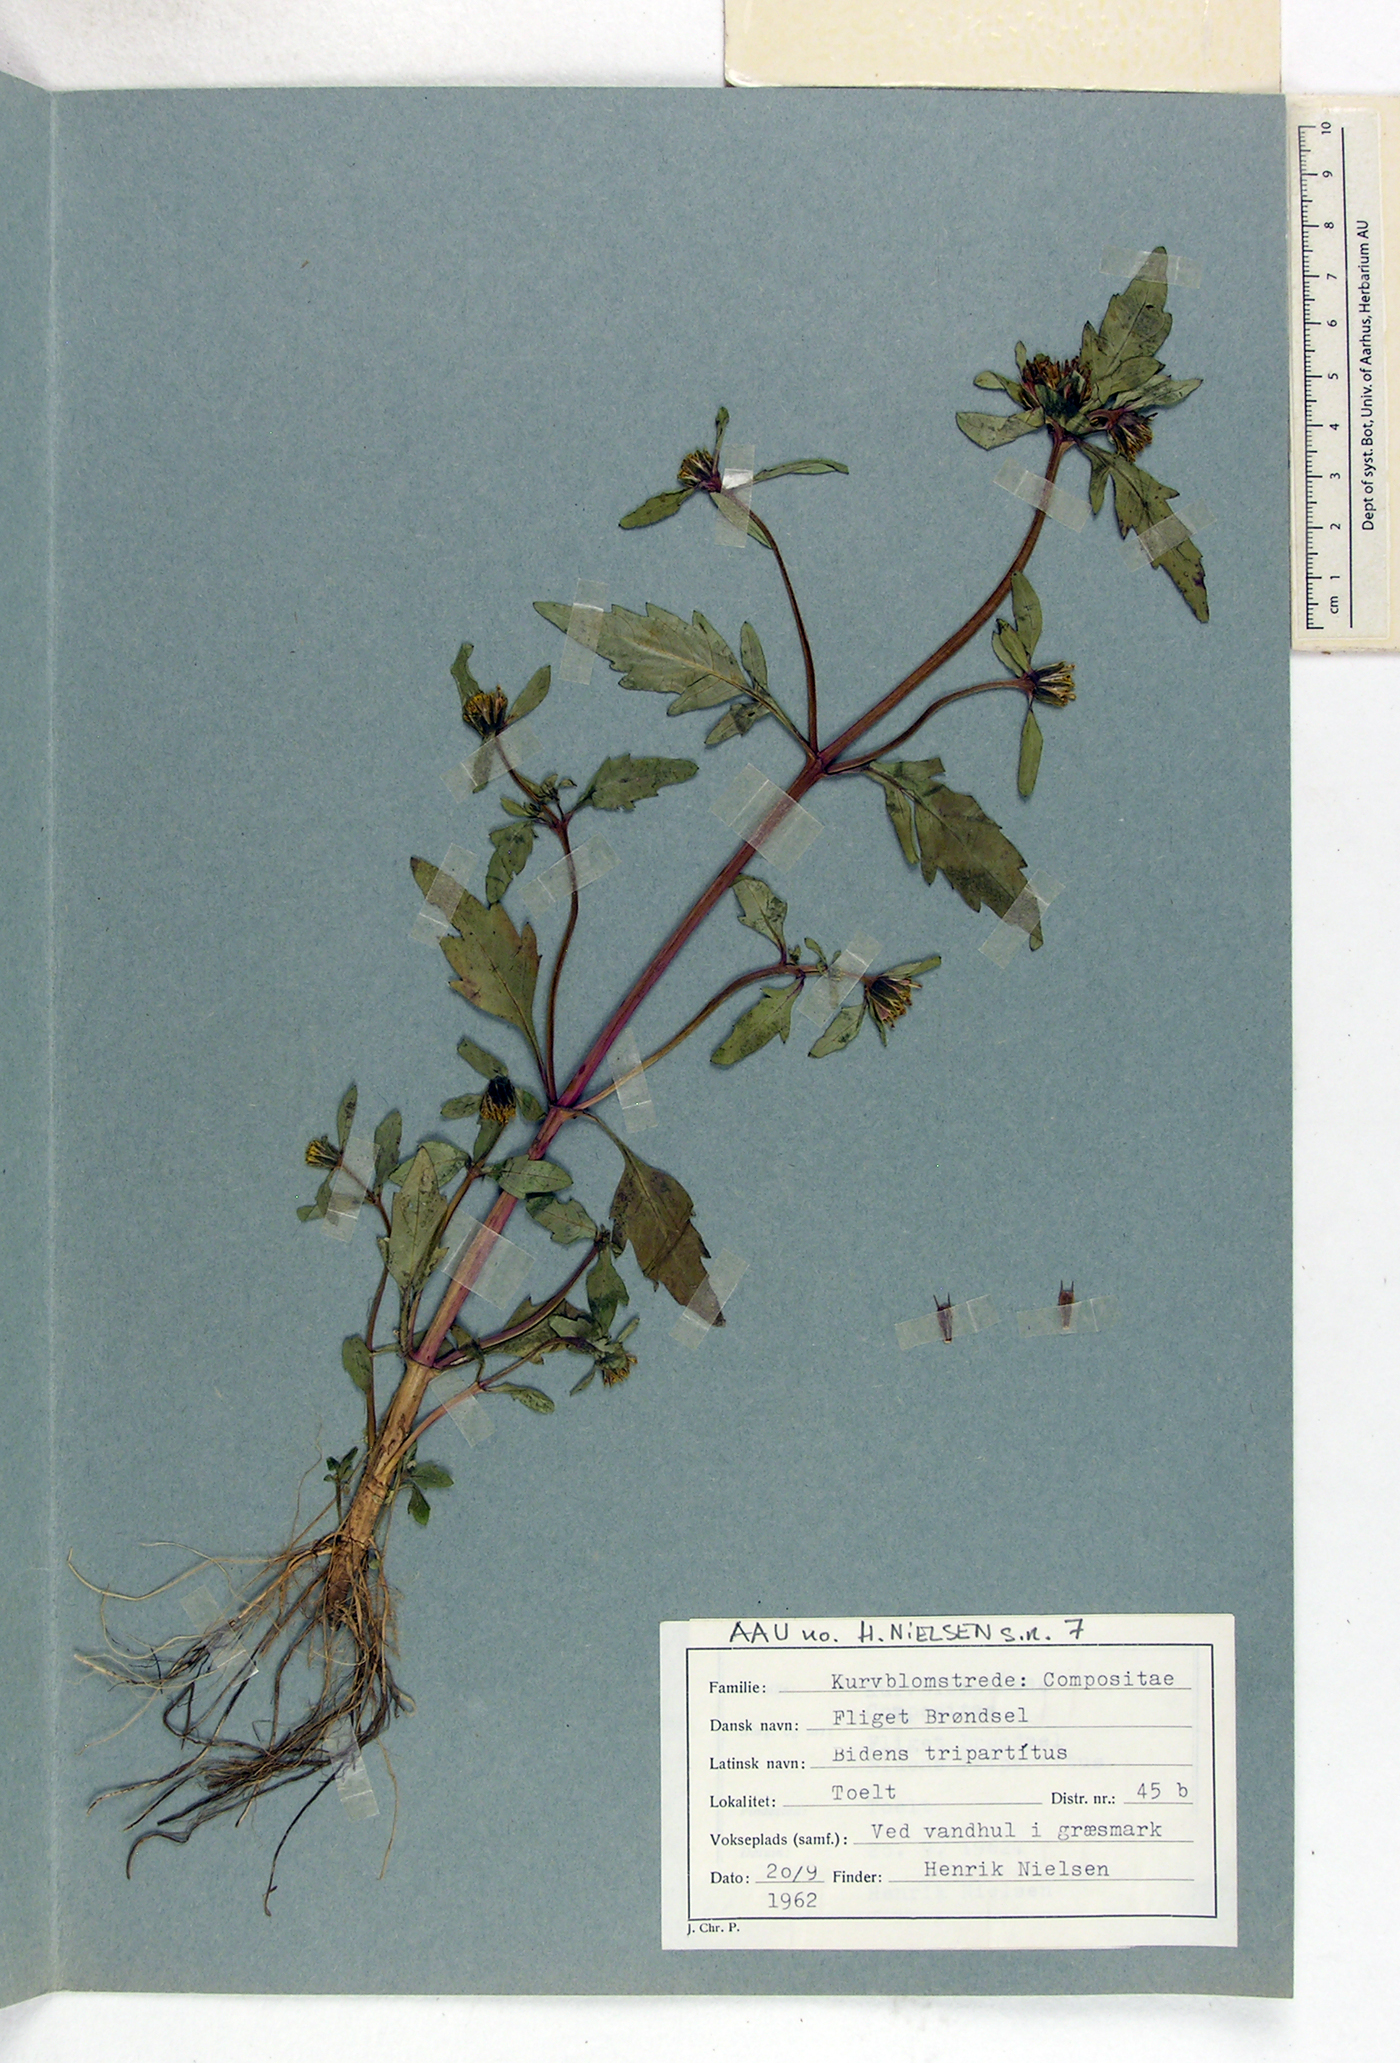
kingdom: Plantae
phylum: Tracheophyta
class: Magnoliopsida
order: Asterales
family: Asteraceae
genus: Bidens
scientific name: Bidens tripartita
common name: Trifid bur-marigold
